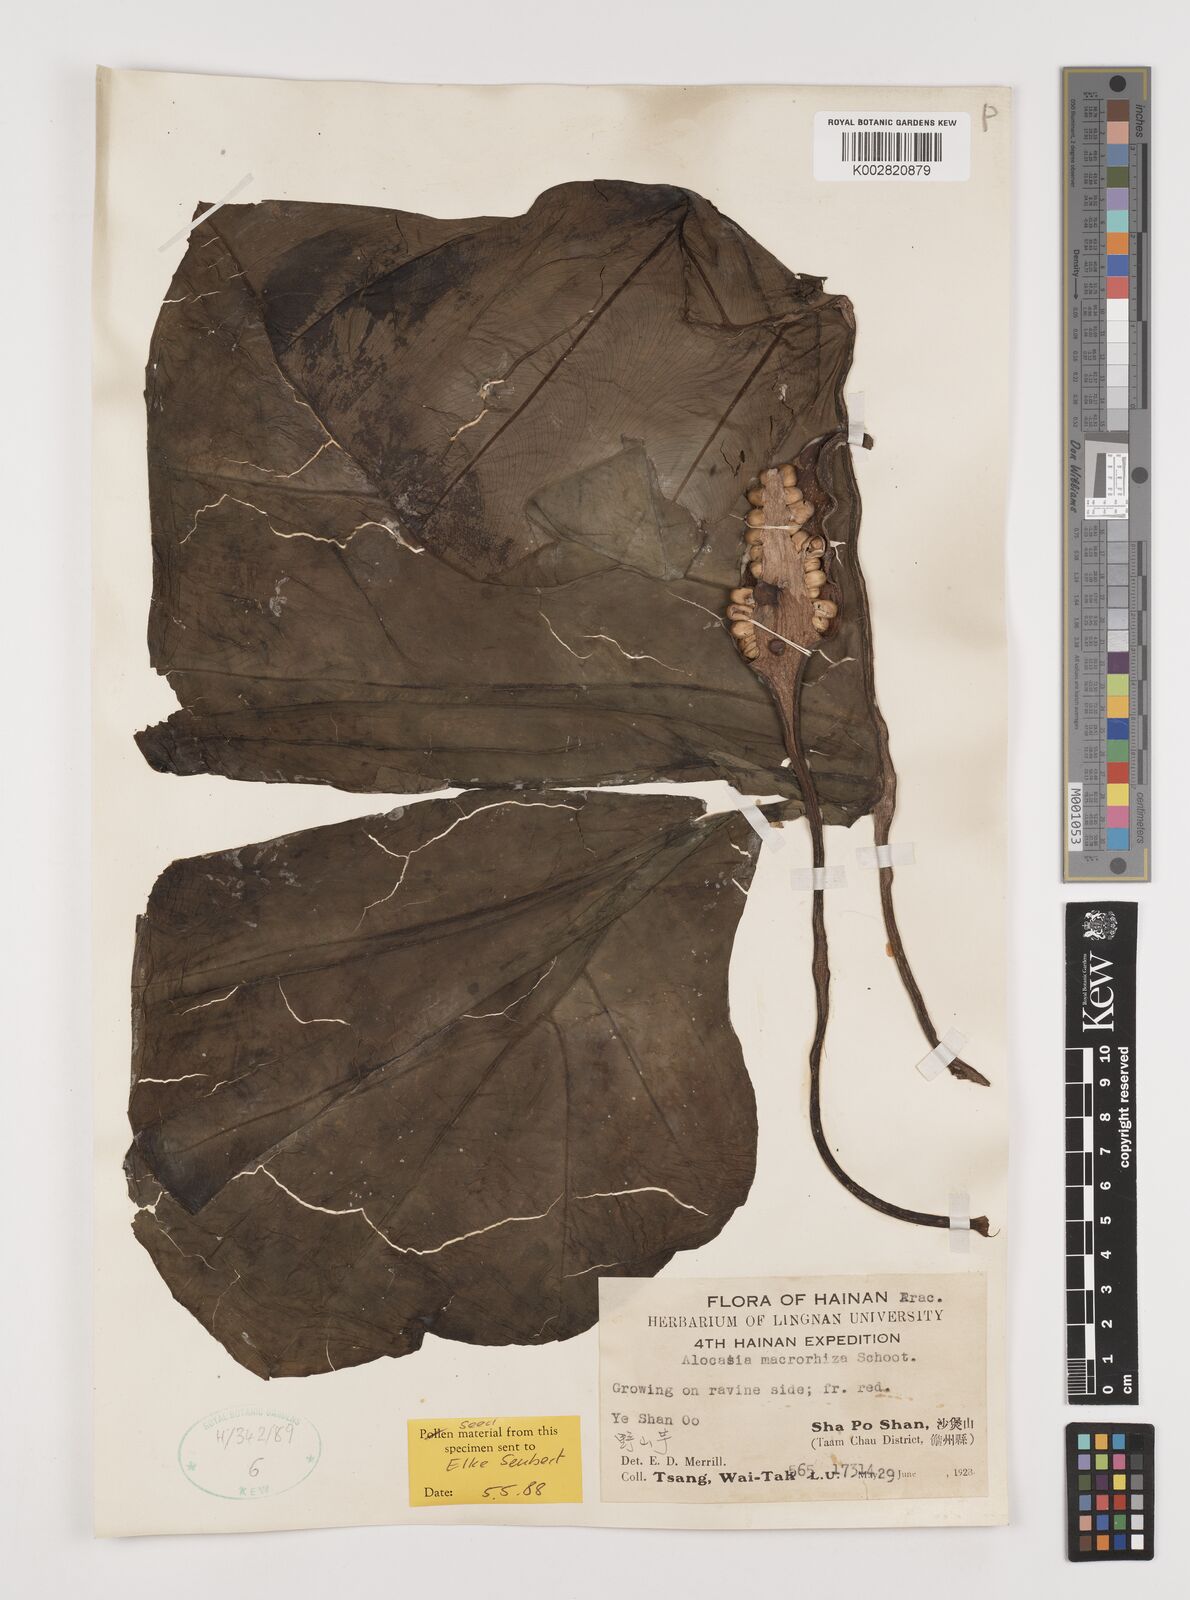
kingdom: Plantae
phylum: Tracheophyta
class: Liliopsida
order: Alismatales
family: Araceae
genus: Alocasia
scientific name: Alocasia macrorrhizos
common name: Giant taro
